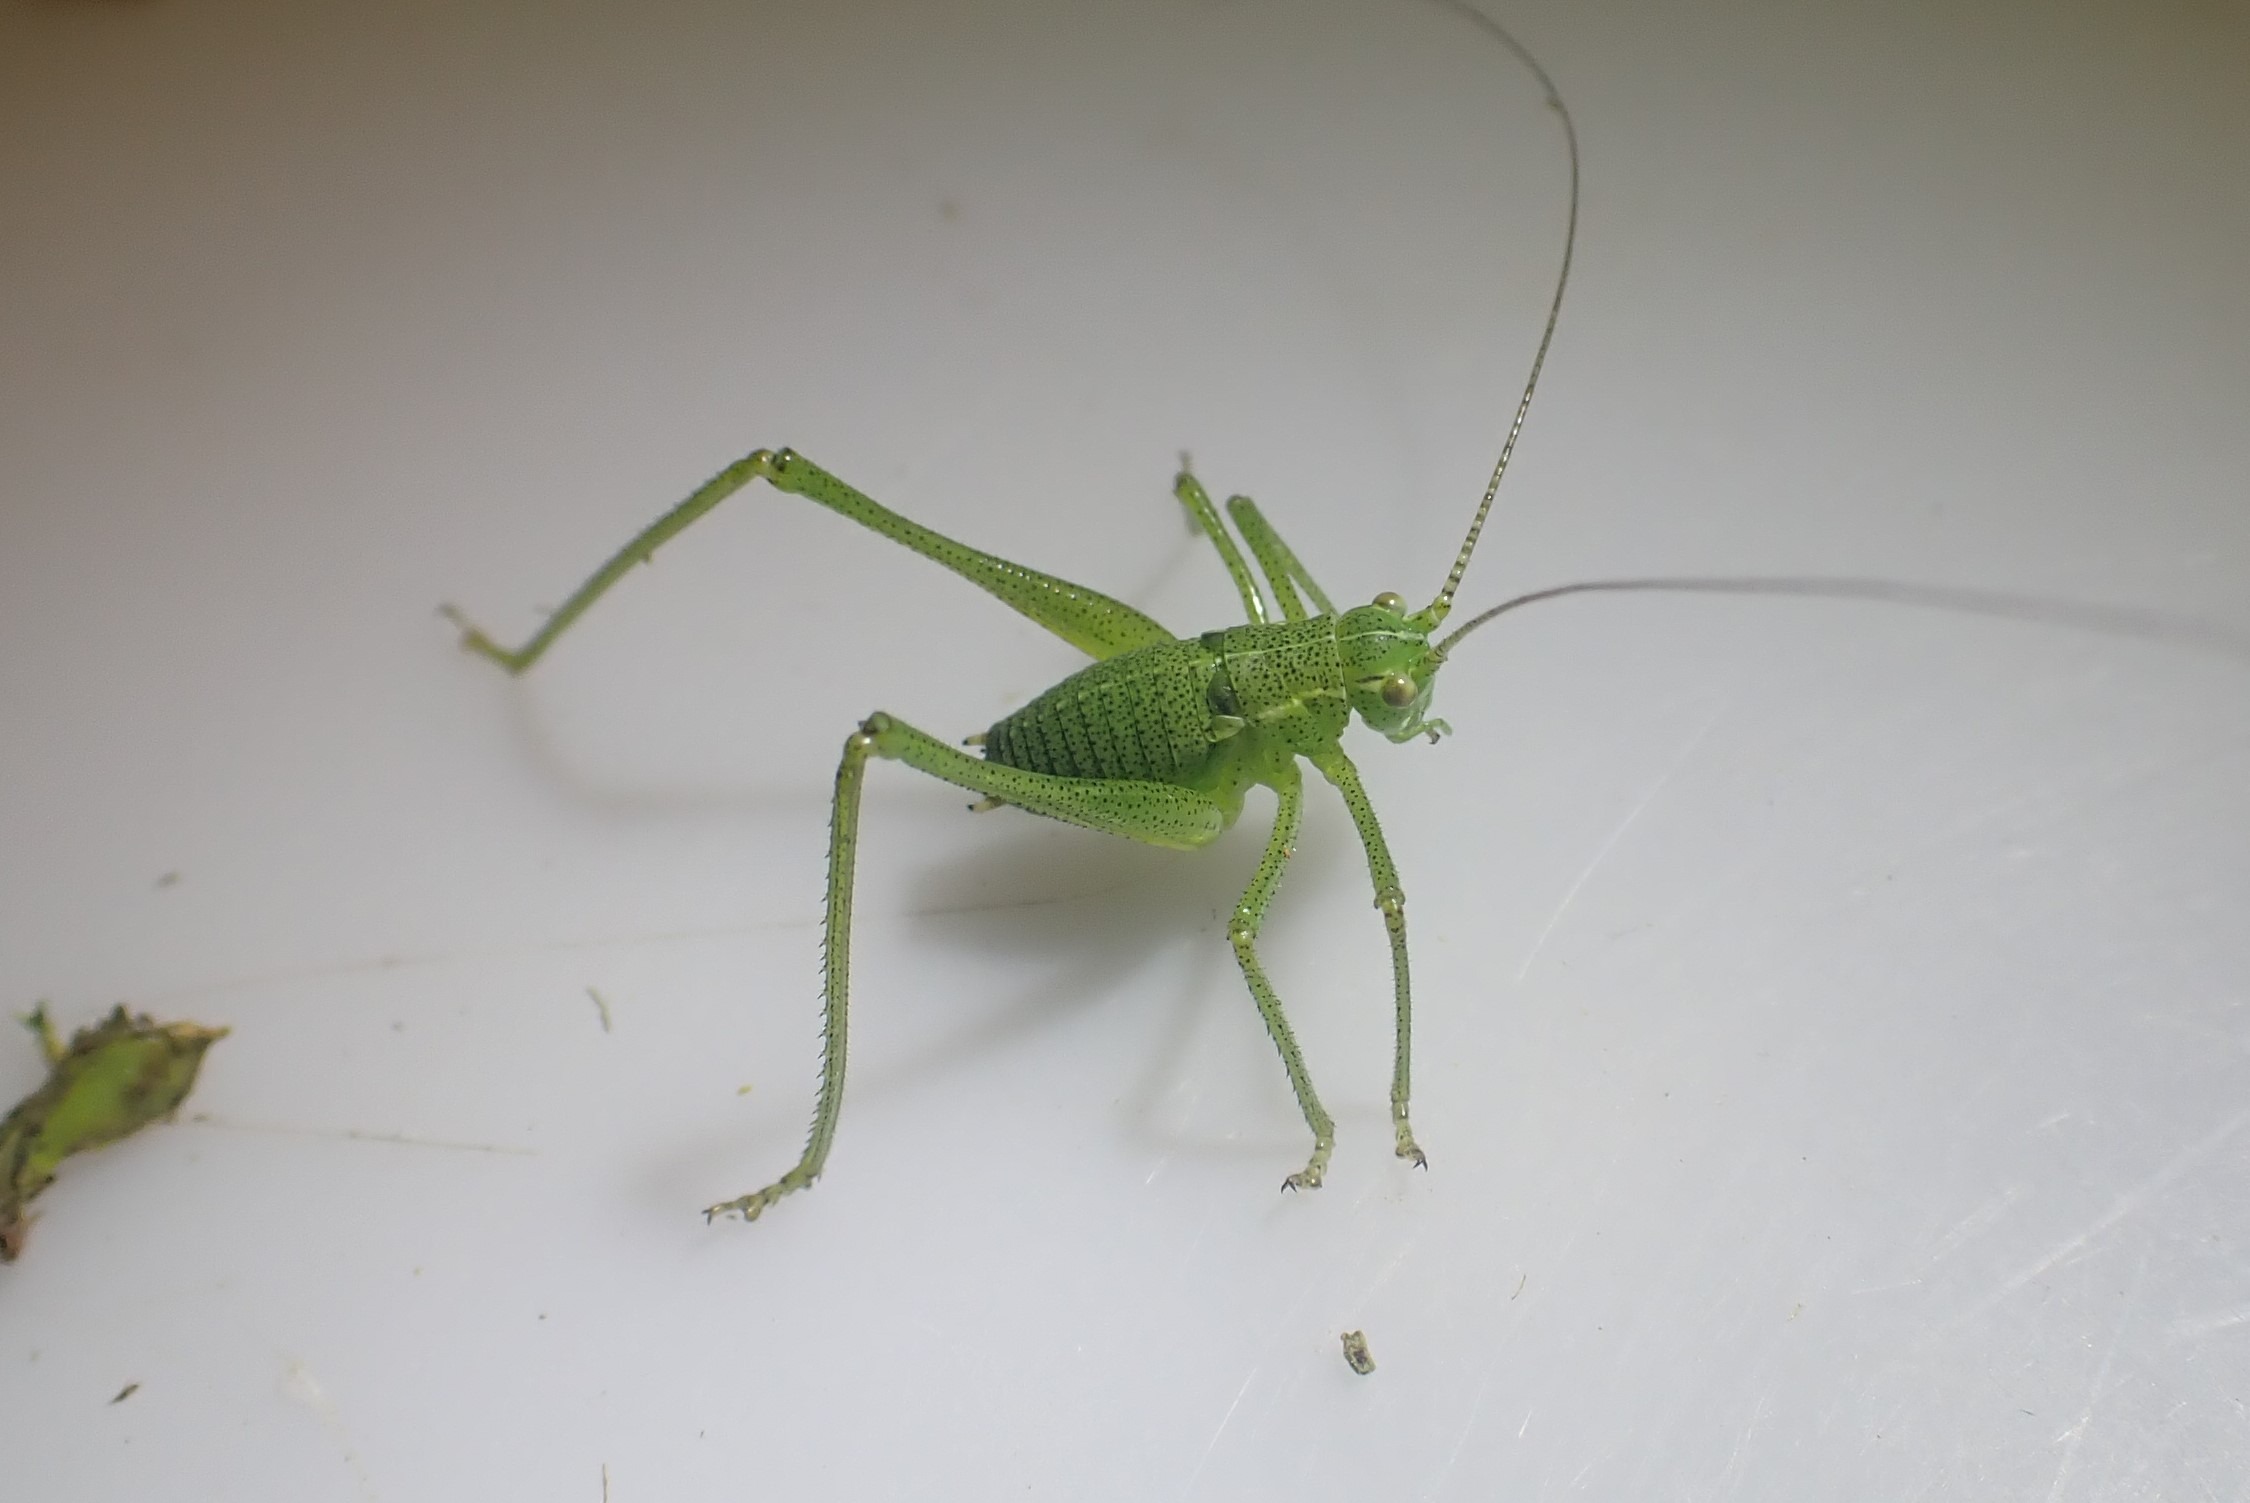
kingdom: Animalia
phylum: Arthropoda
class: Insecta
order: Orthoptera
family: Tettigoniidae
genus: Leptophyes
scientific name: Leptophyes punctatissima
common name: Krumknivgræshoppe
